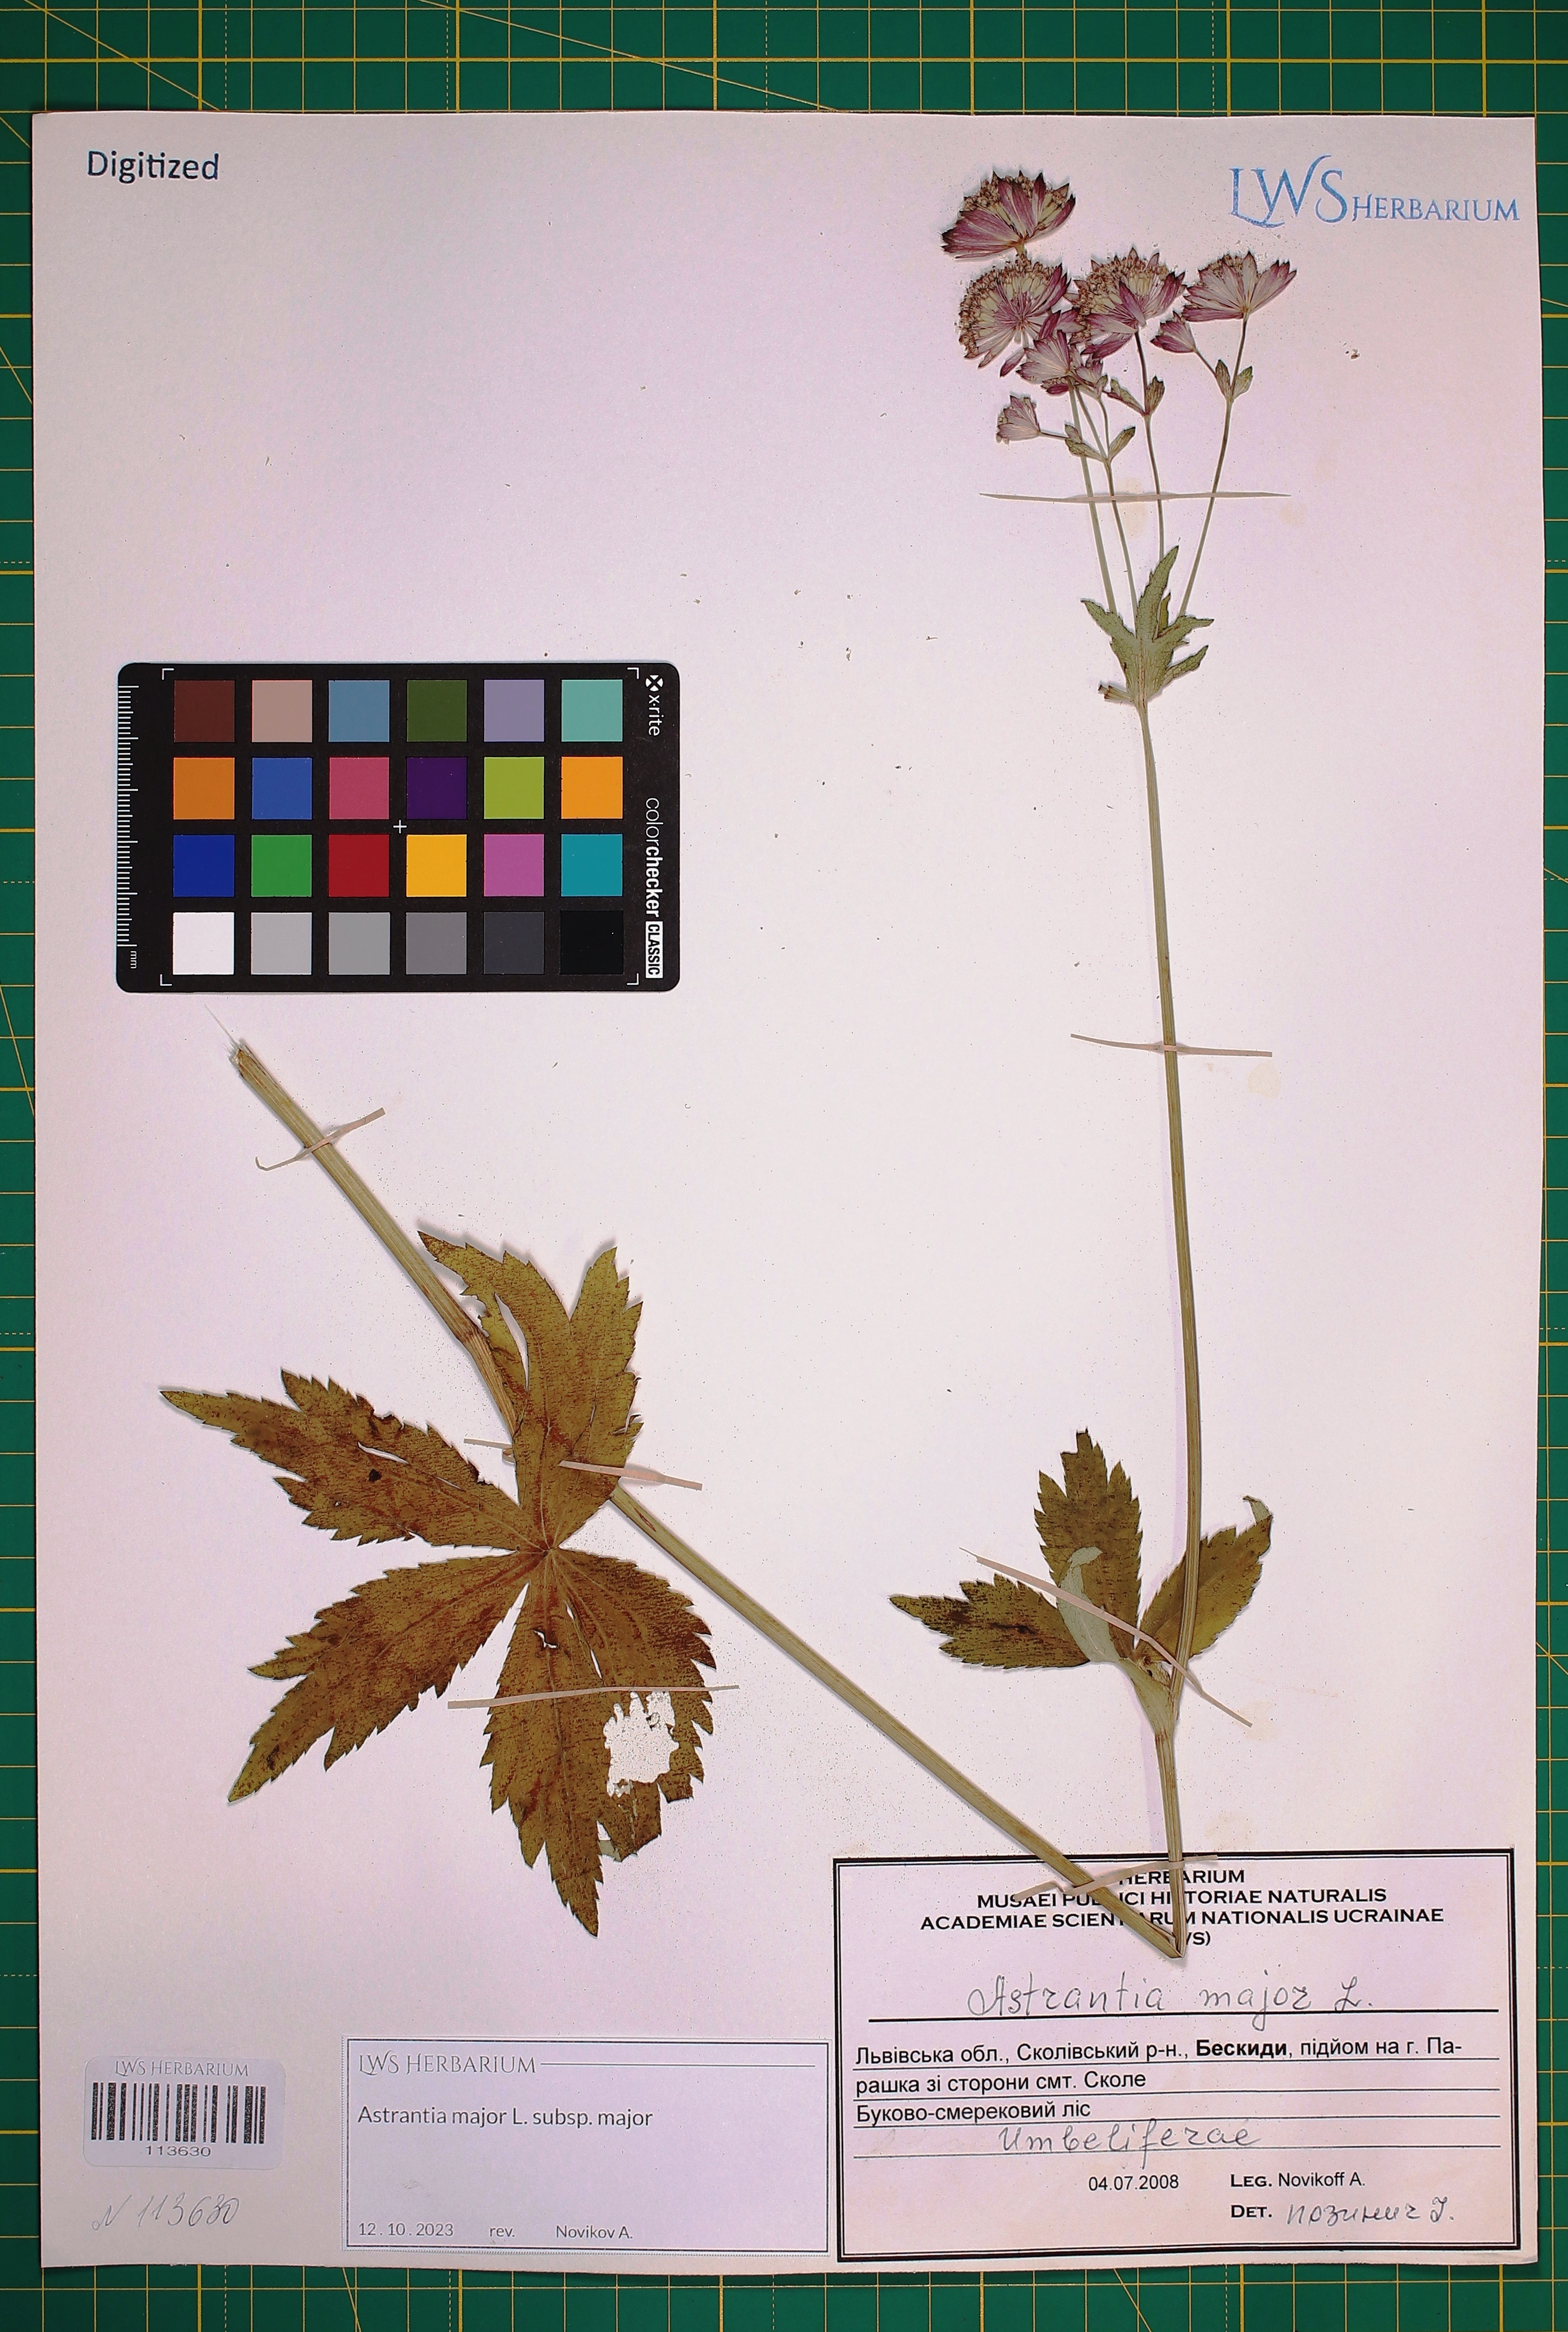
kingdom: Plantae
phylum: Tracheophyta
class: Magnoliopsida
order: Apiales
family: Apiaceae
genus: Astrantia
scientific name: Astrantia major
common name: Greater masterwort
